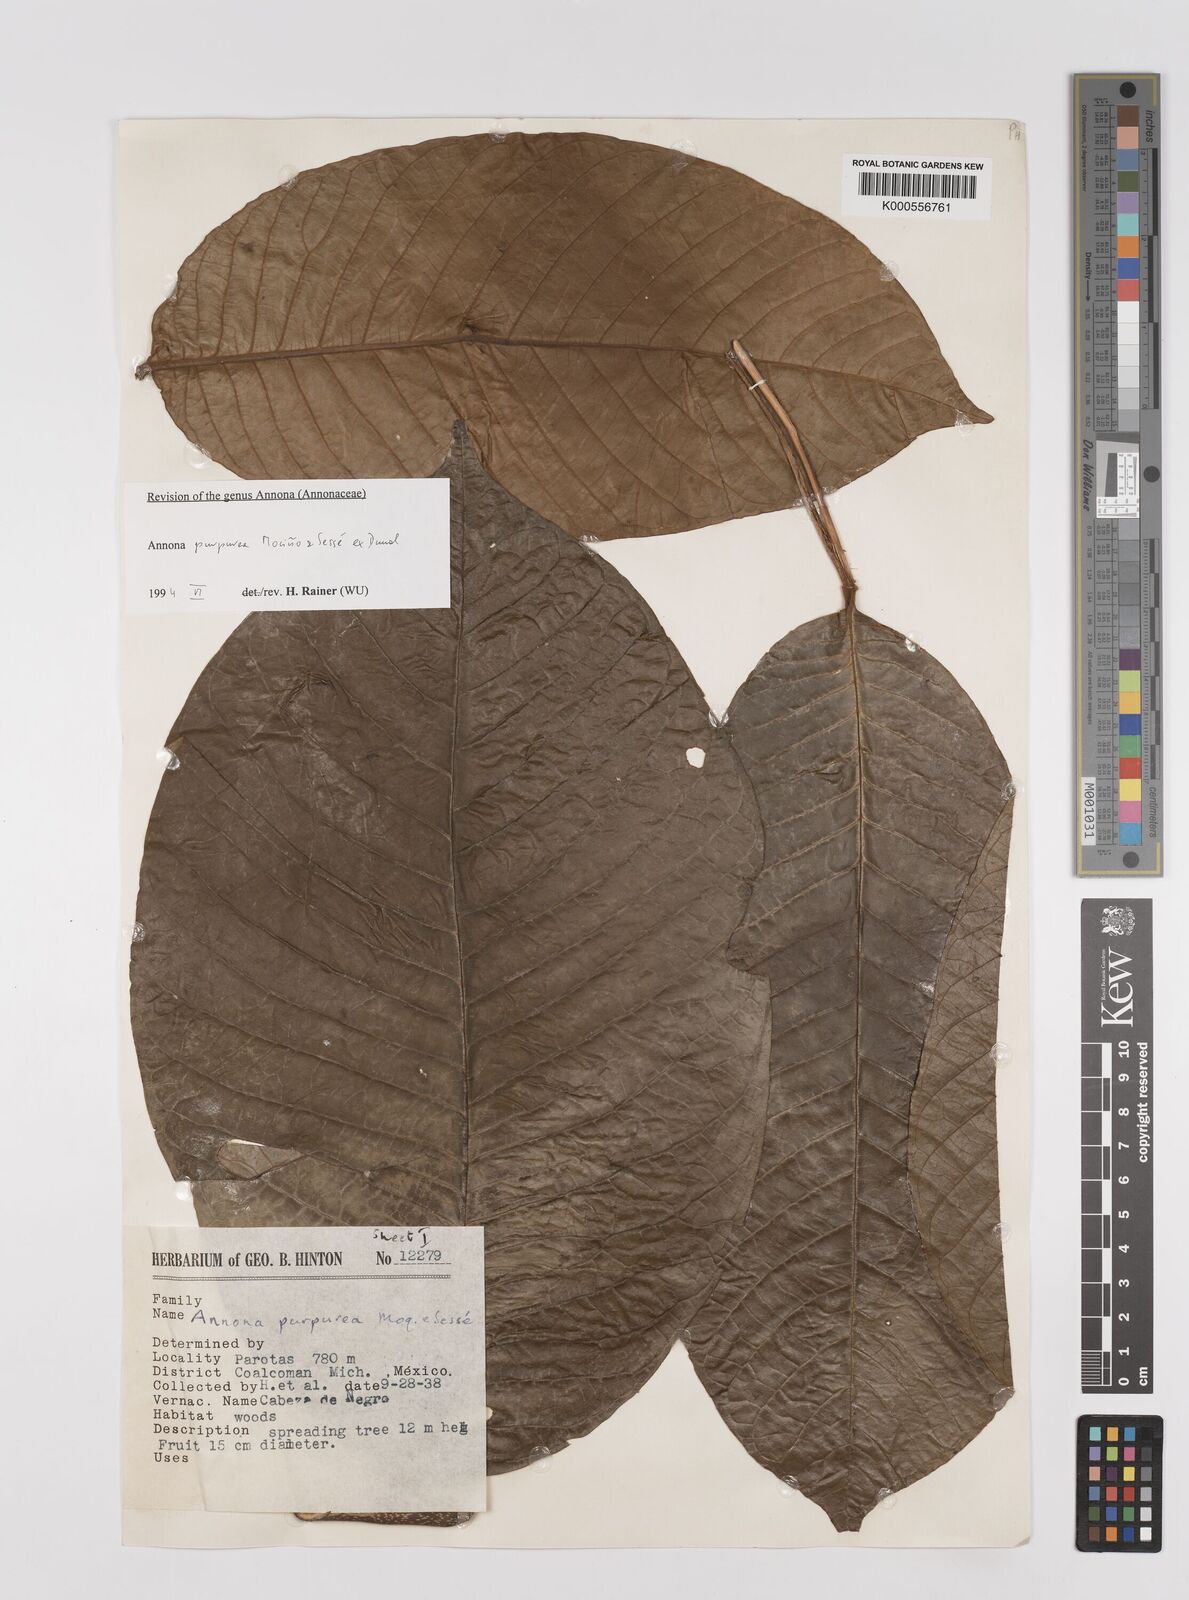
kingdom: Plantae
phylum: Tracheophyta
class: Magnoliopsida
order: Magnoliales
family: Annonaceae
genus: Annona
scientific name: Annona
